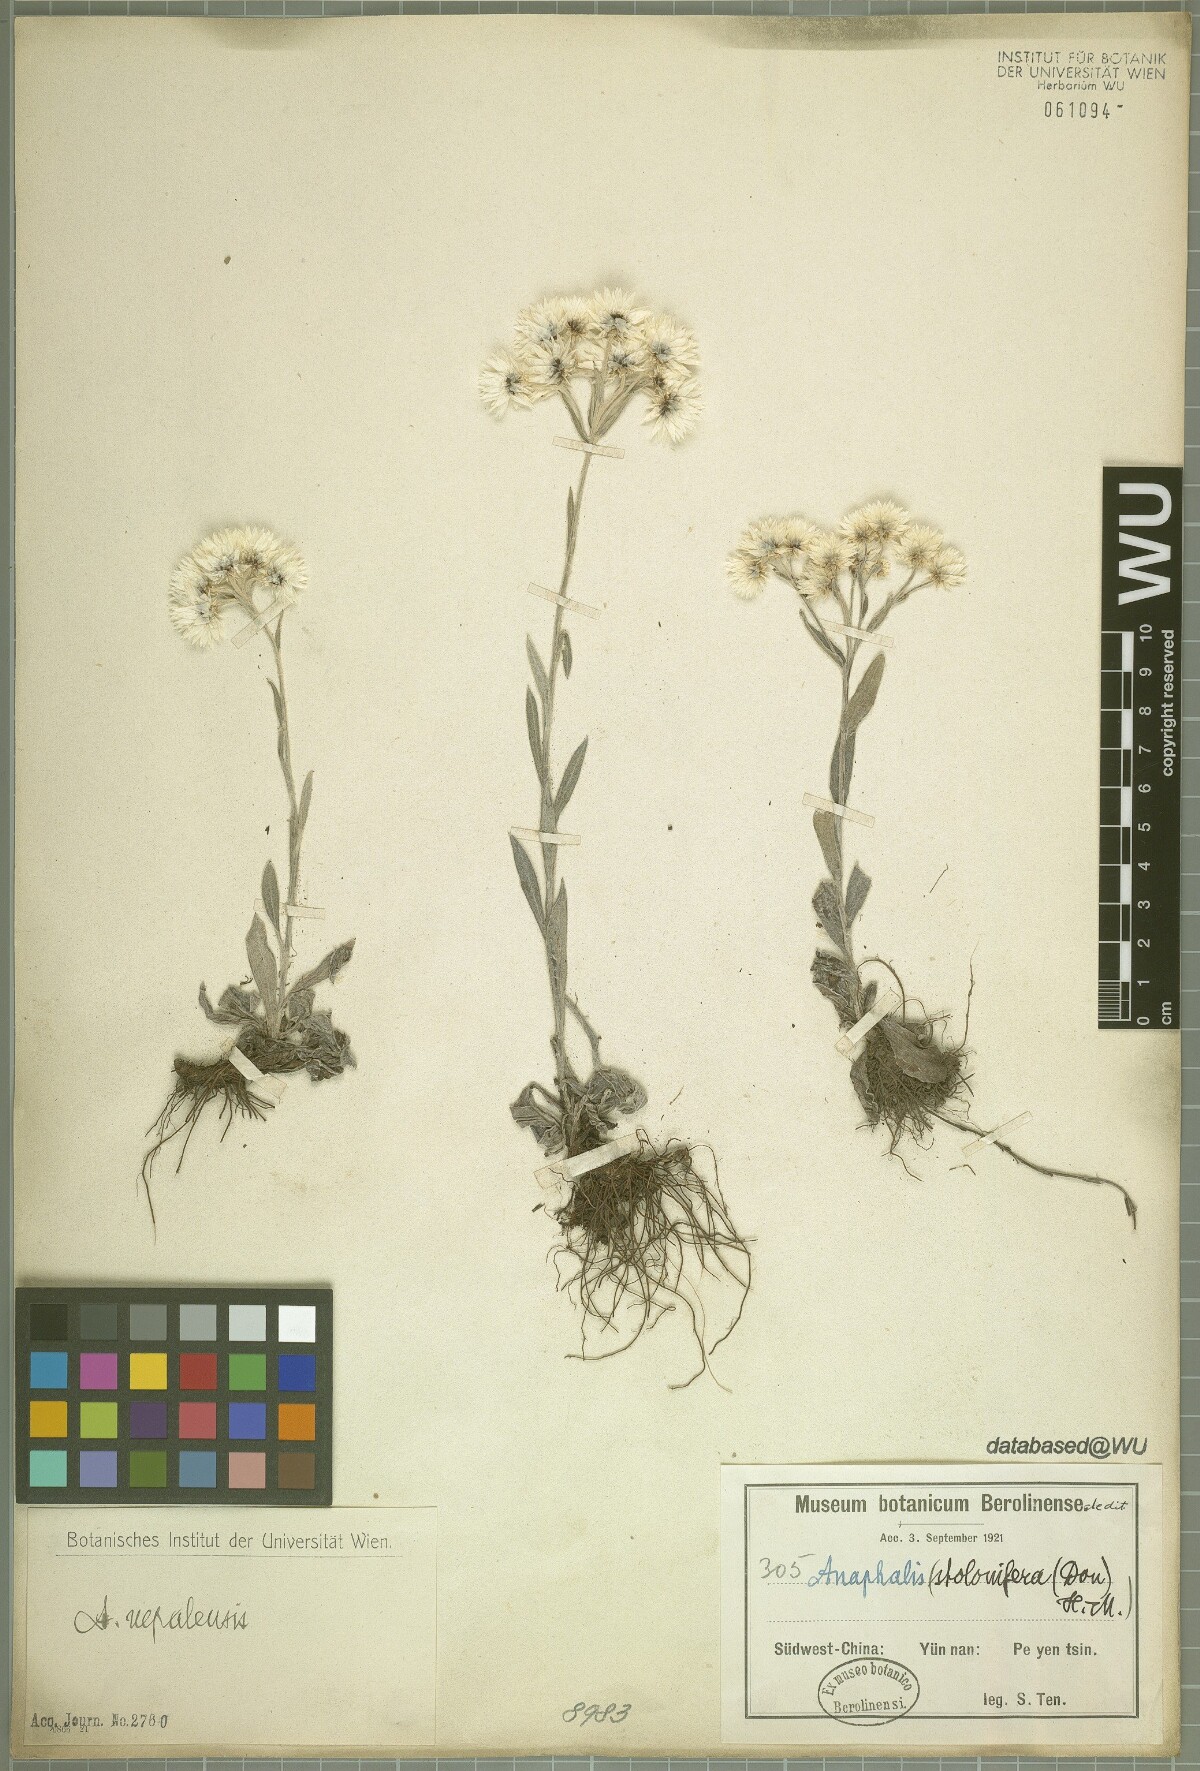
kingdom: Plantae
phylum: Tracheophyta
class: Magnoliopsida
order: Asterales
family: Asteraceae
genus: Anaphalis
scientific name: Anaphalis nepalensis
